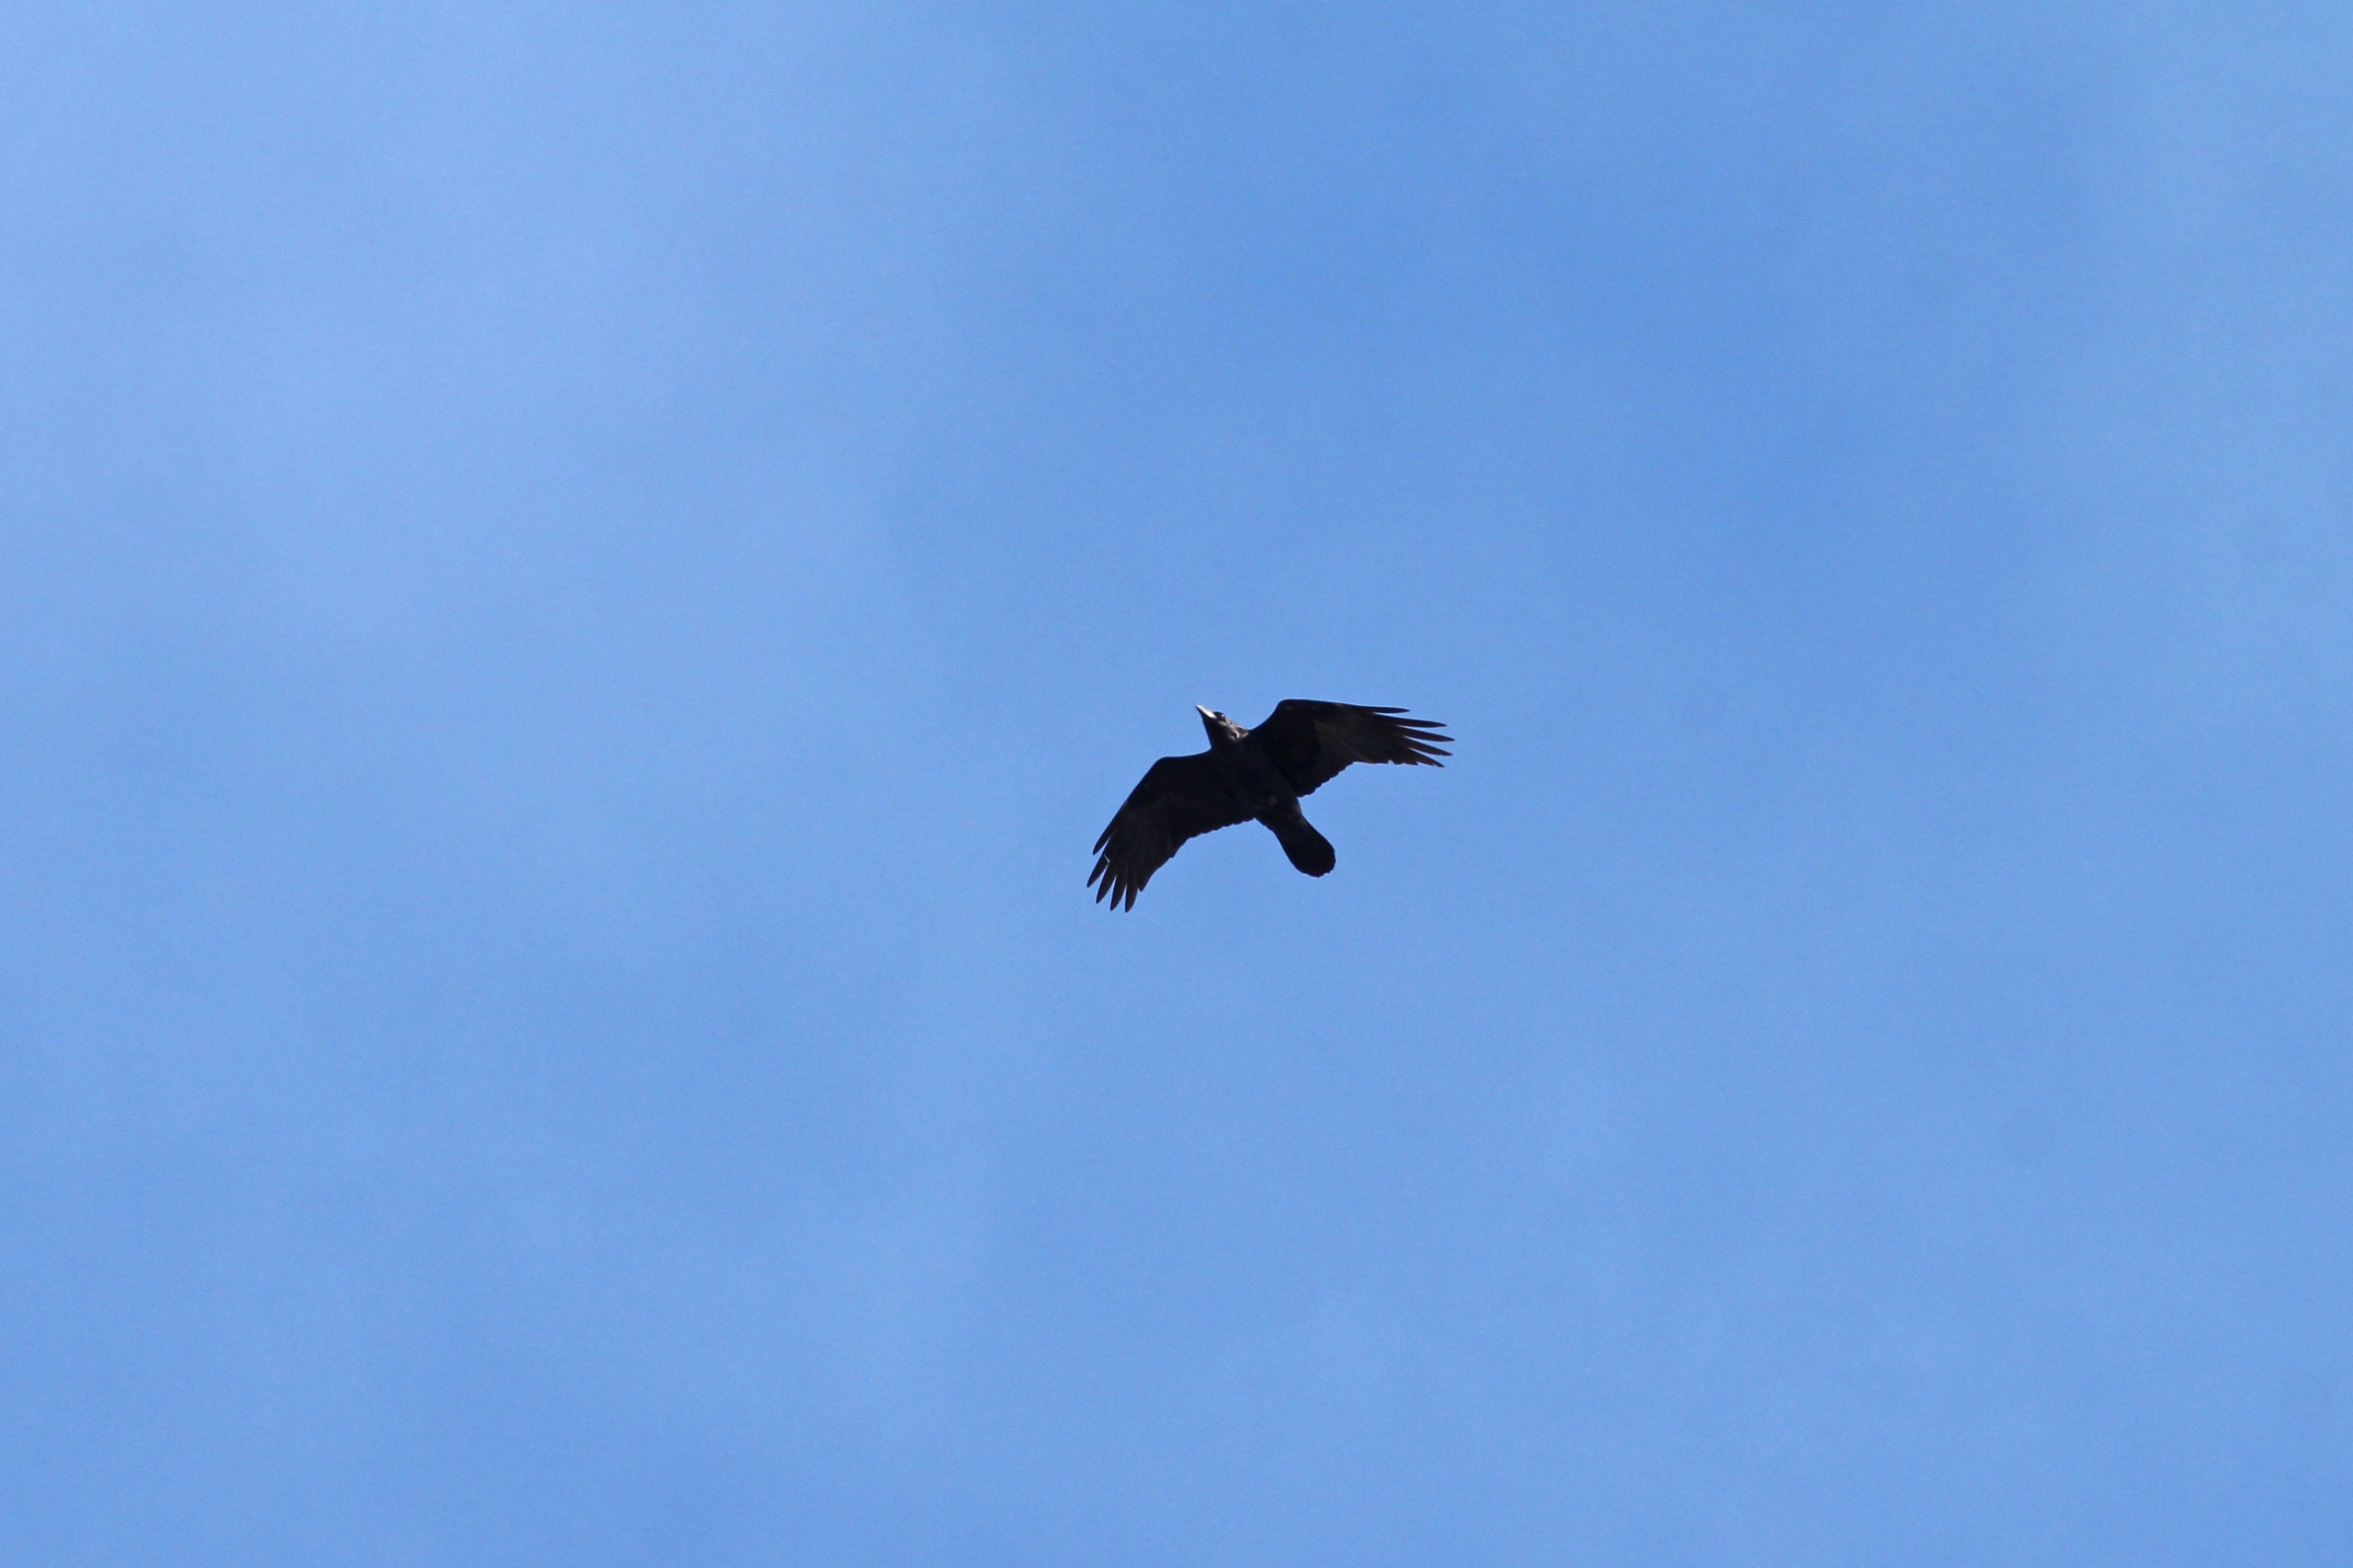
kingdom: Animalia
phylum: Chordata
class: Aves
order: Passeriformes
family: Corvidae
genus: Corvus
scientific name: Corvus corax
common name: Ravn
